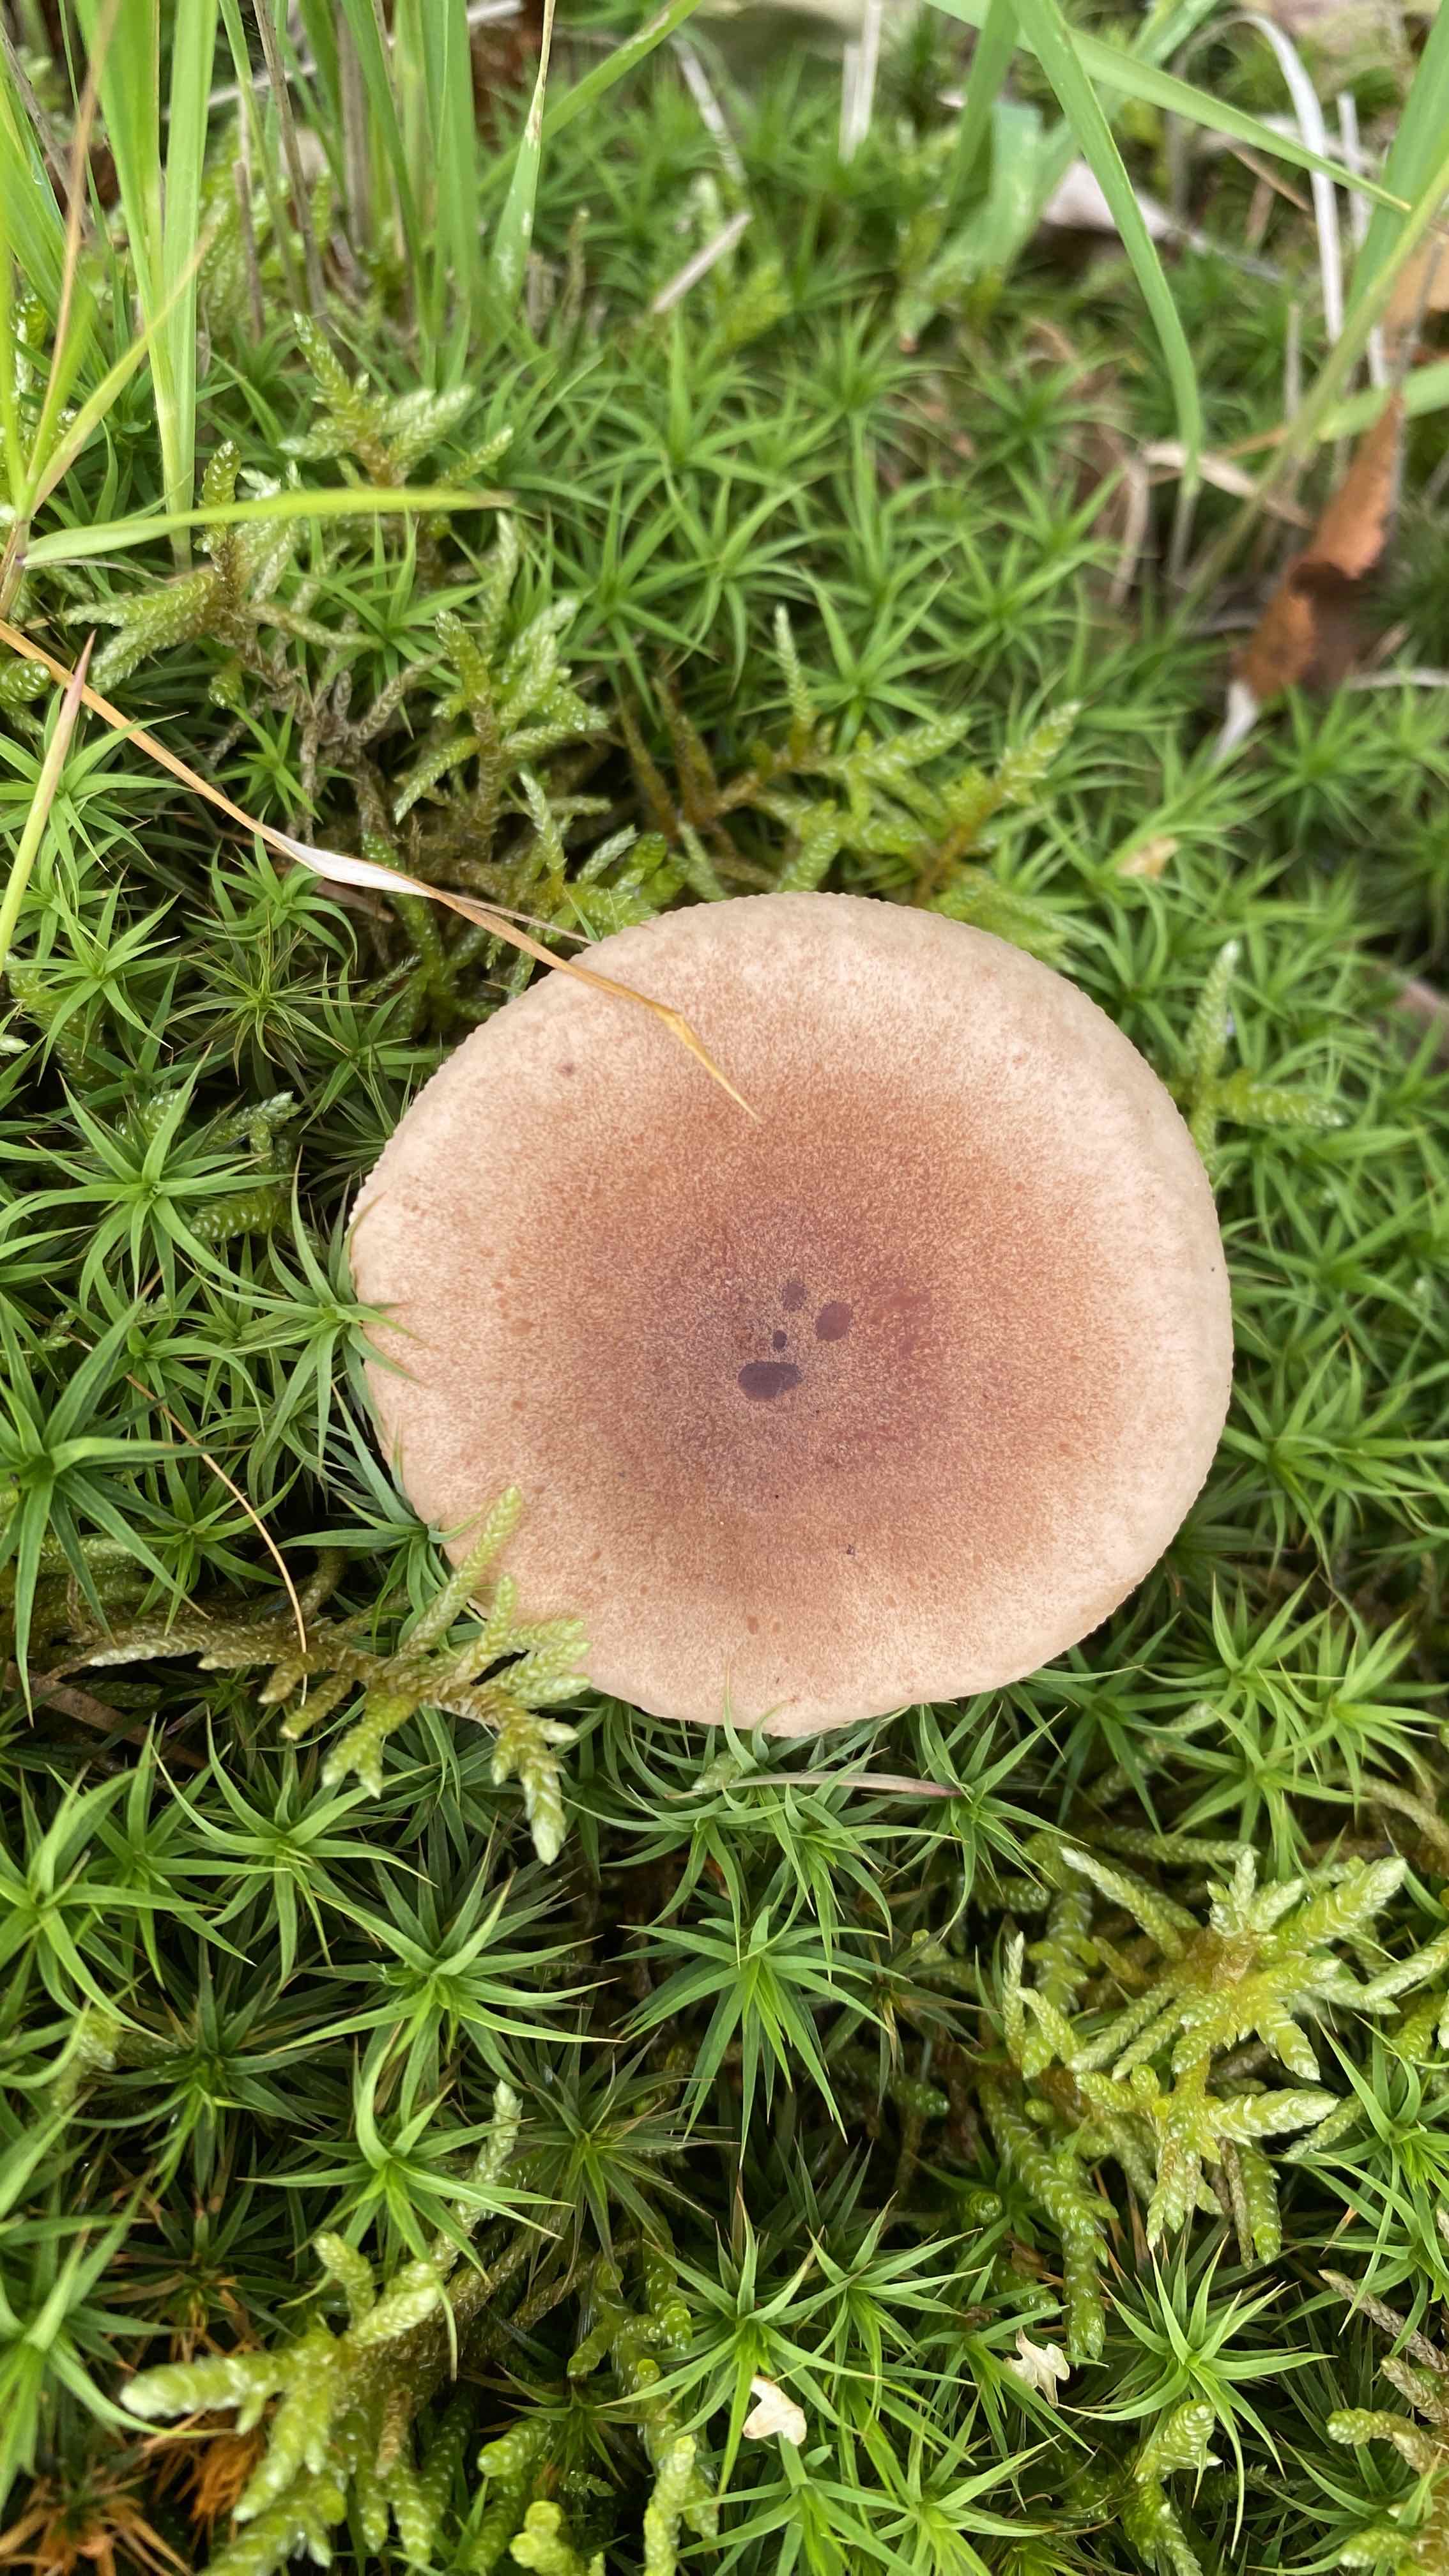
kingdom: Fungi
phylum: Basidiomycota
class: Agaricomycetes
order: Russulales
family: Russulaceae
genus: Lactarius
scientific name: Lactarius quietus
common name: ege-mælkehat
